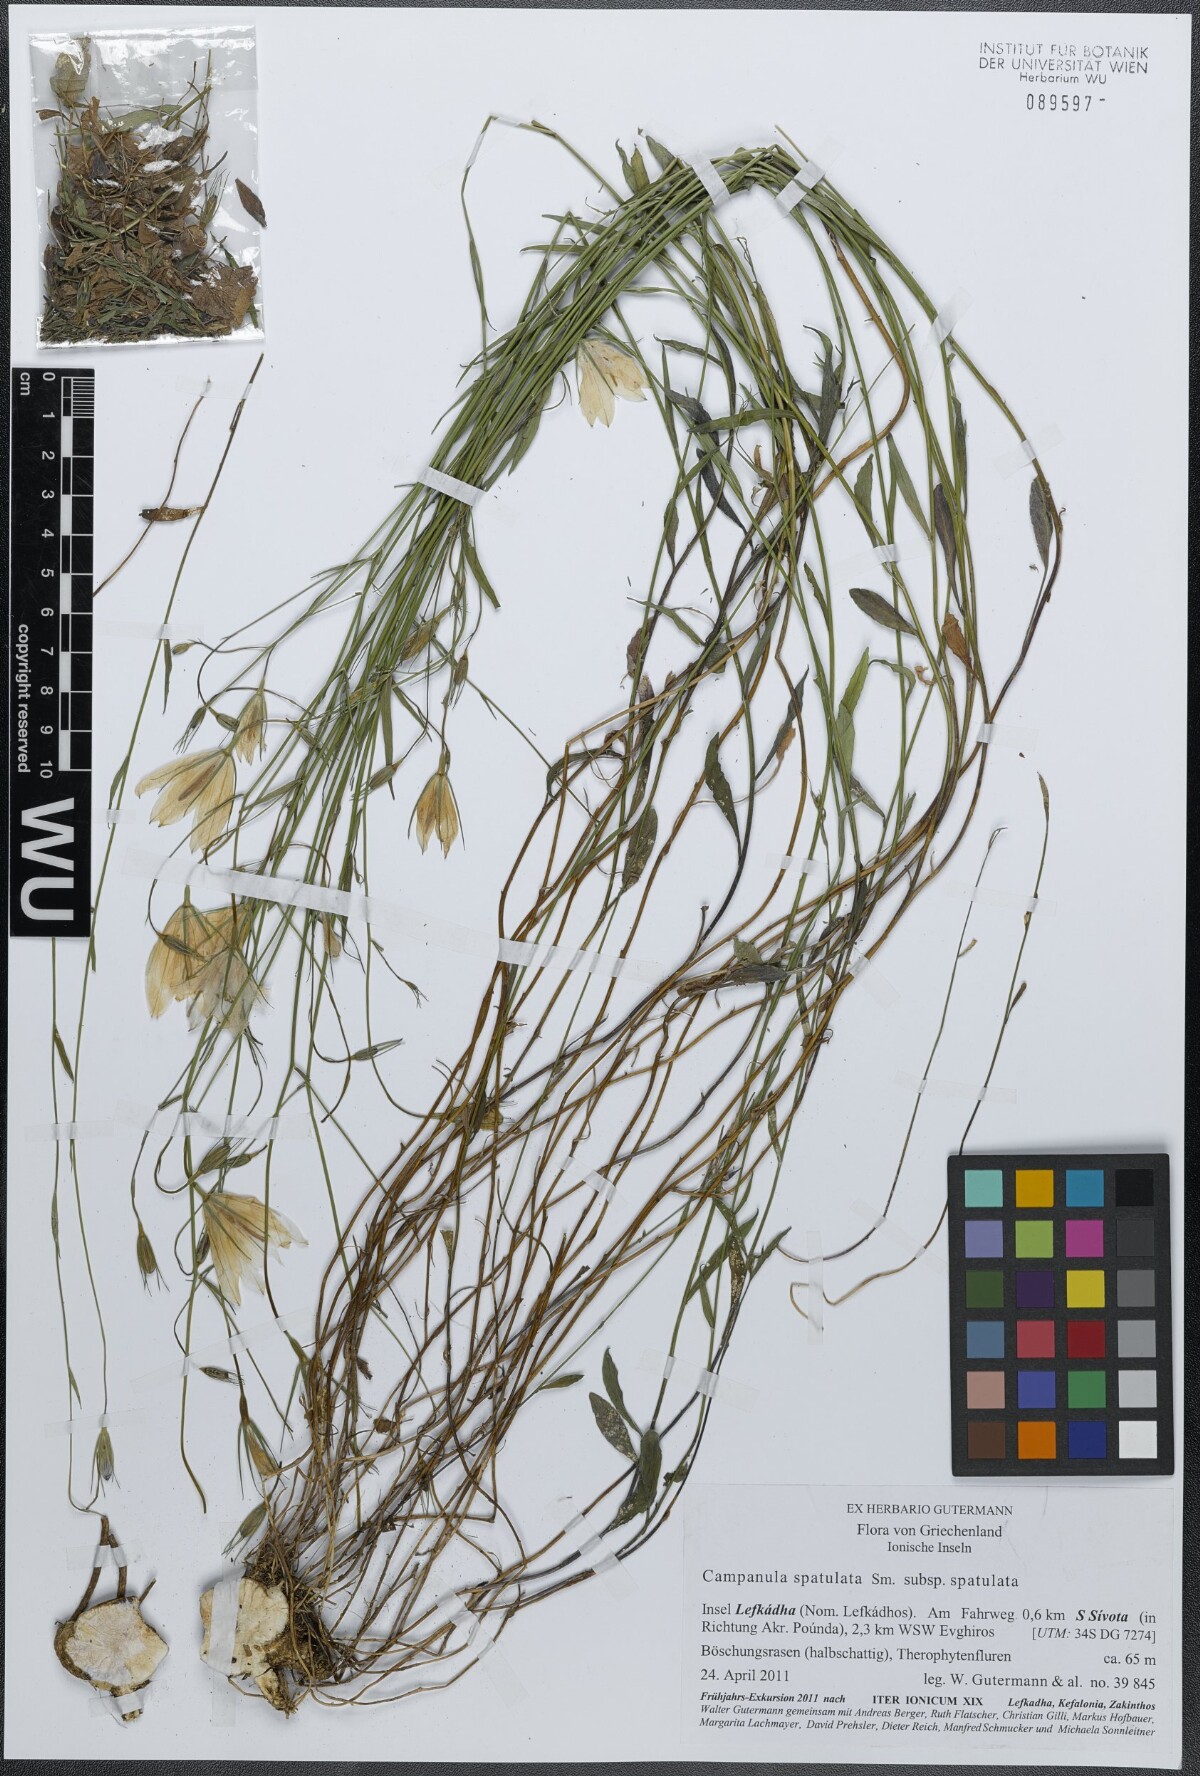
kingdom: Plantae
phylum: Tracheophyta
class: Magnoliopsida
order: Asterales
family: Campanulaceae
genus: Campanula
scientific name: Campanula spatulata
